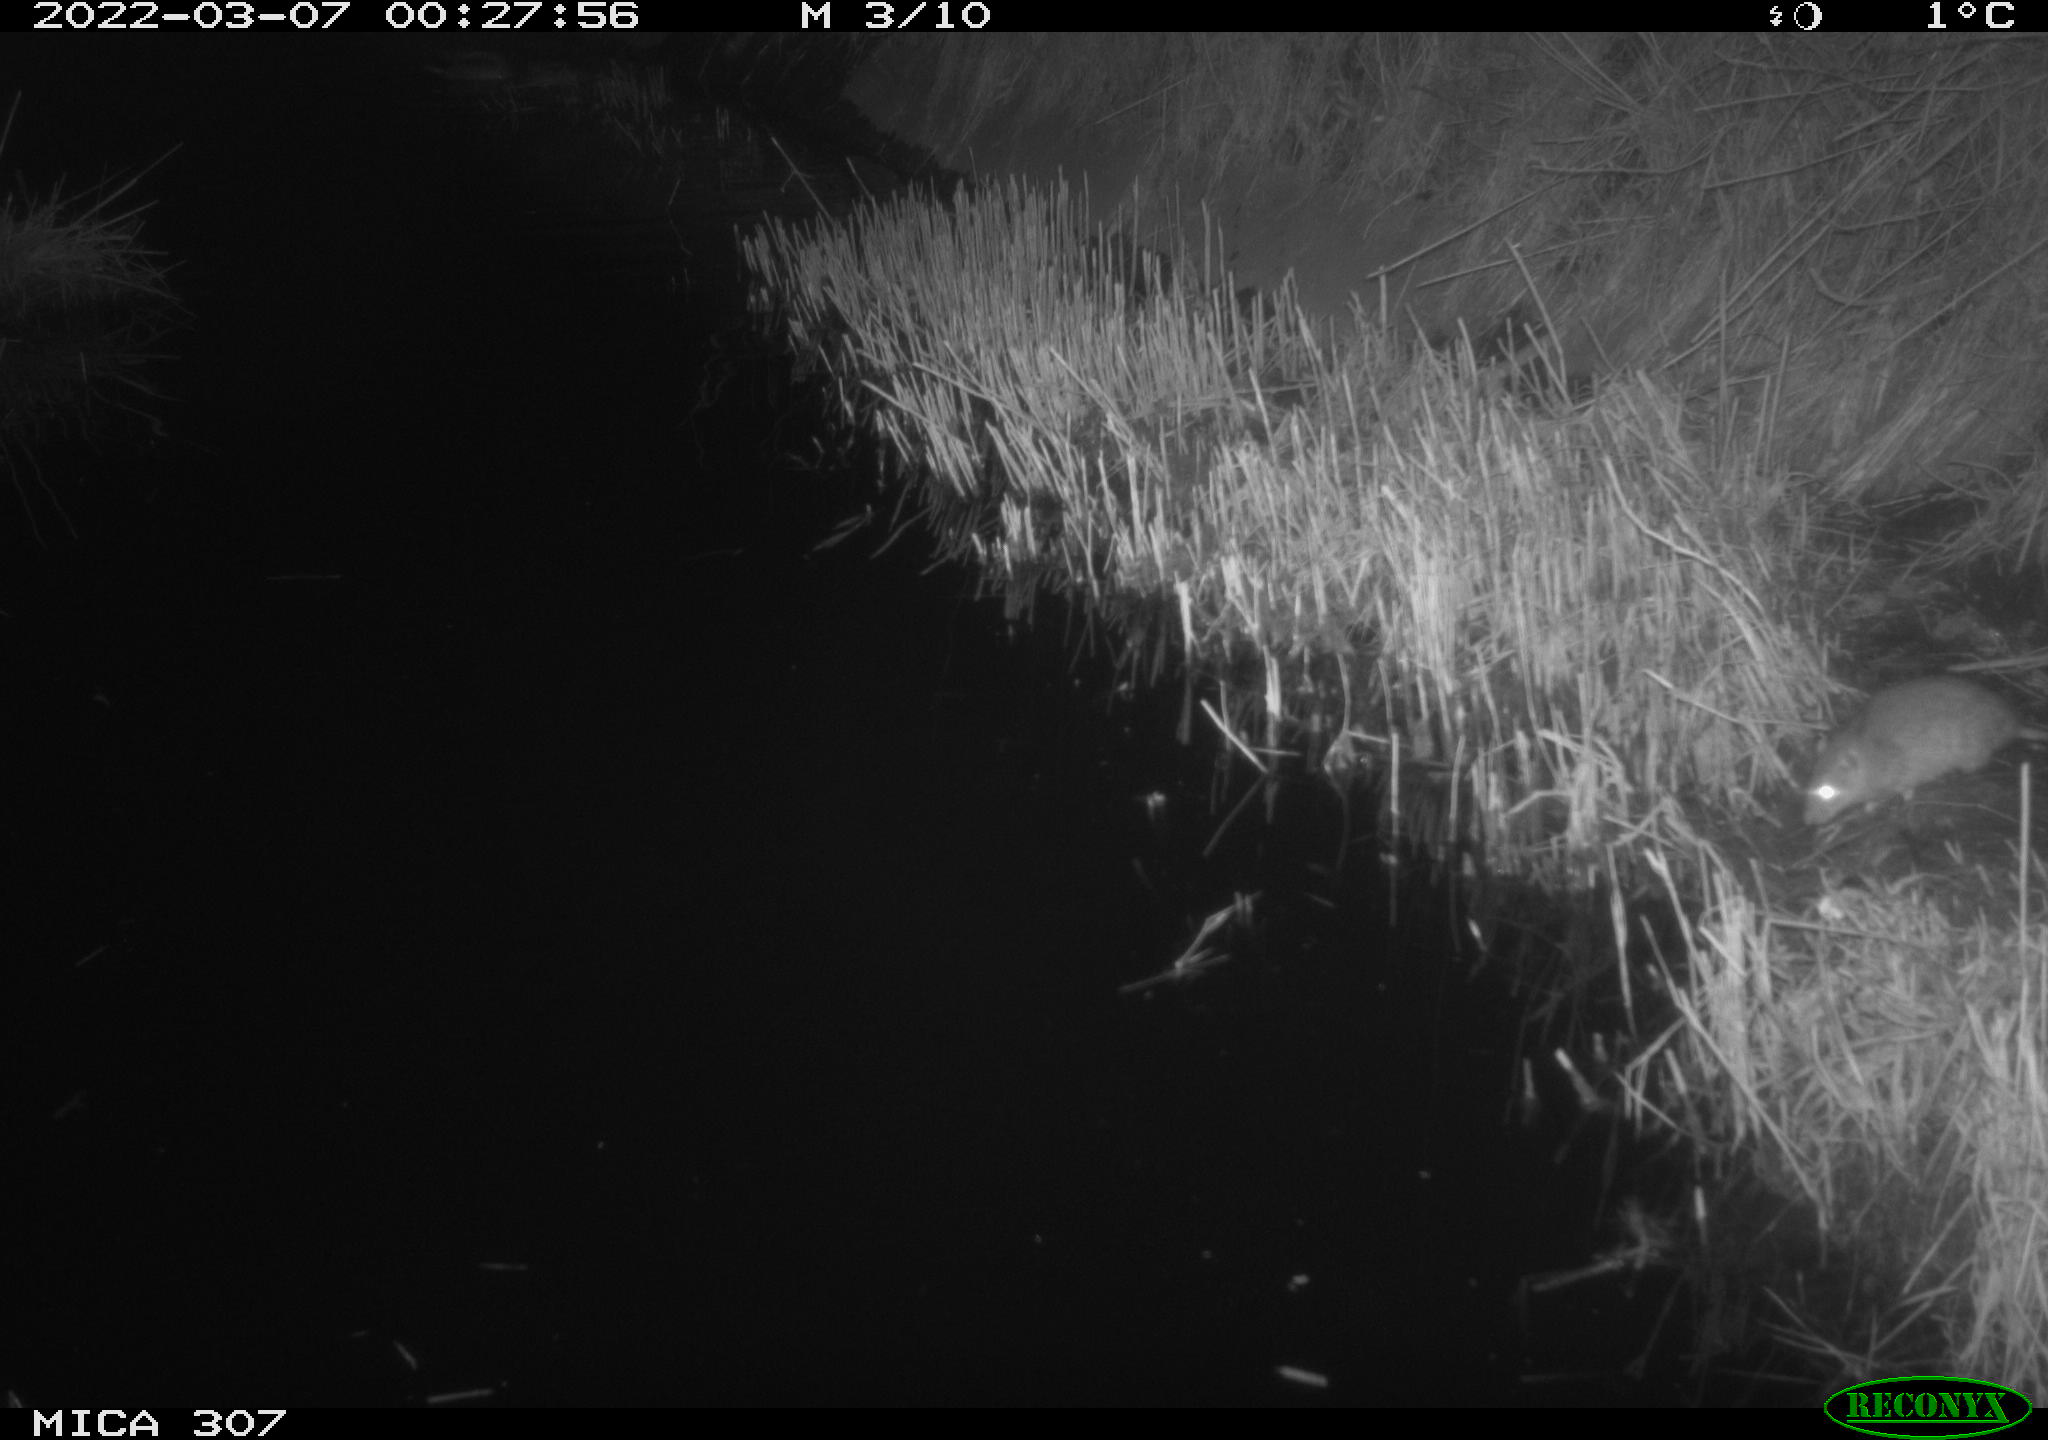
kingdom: Animalia
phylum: Chordata
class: Mammalia
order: Rodentia
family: Muridae
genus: Rattus
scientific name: Rattus norvegicus
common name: Brown rat
